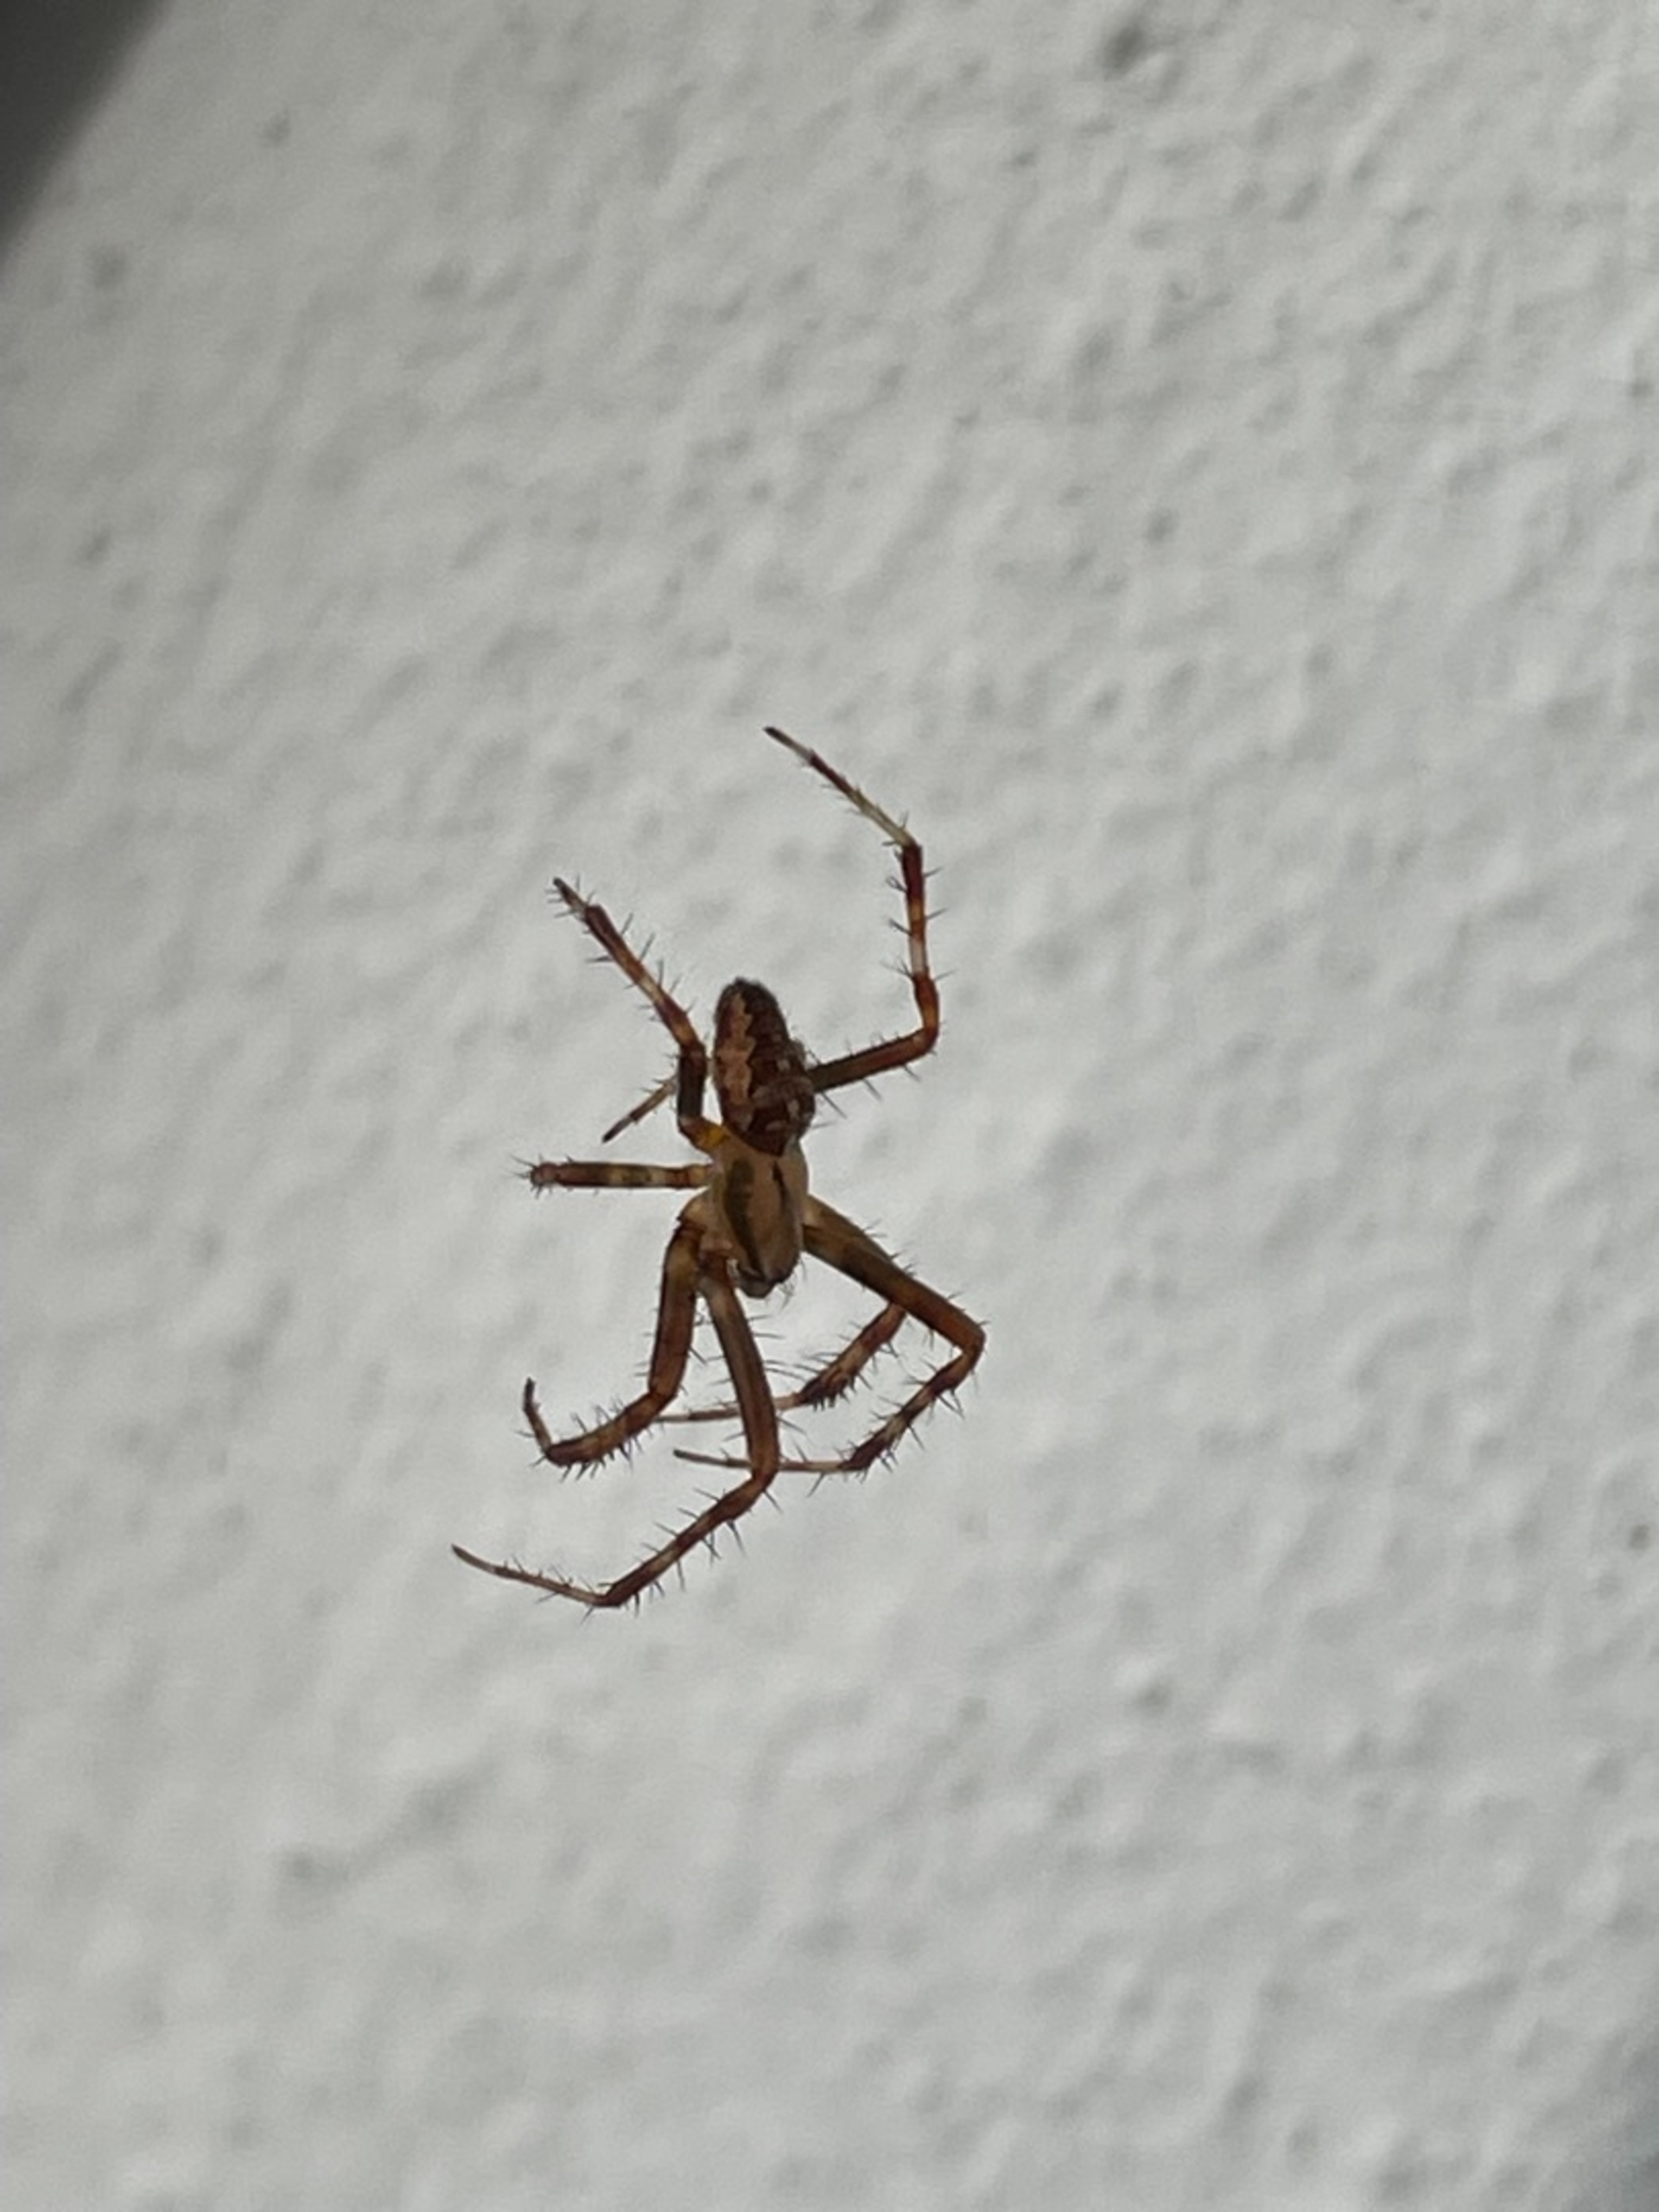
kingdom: Animalia
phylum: Arthropoda
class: Arachnida
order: Araneae
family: Araneidae
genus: Araneus
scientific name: Araneus diadematus
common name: Korsedderkop
